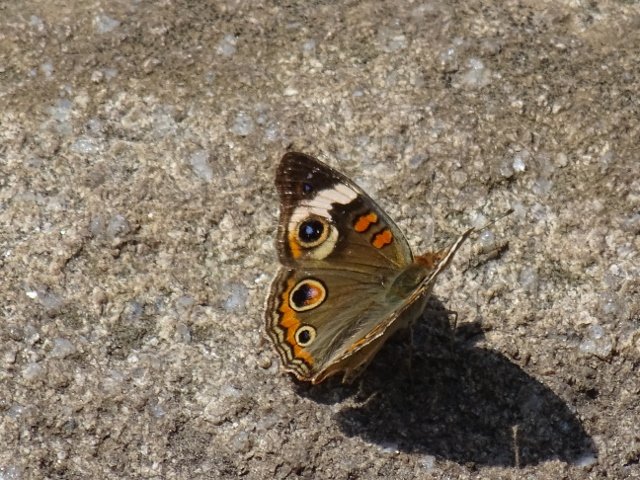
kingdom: Animalia
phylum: Arthropoda
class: Insecta
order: Lepidoptera
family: Nymphalidae
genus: Junonia
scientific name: Junonia coenia
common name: Common Buckeye
